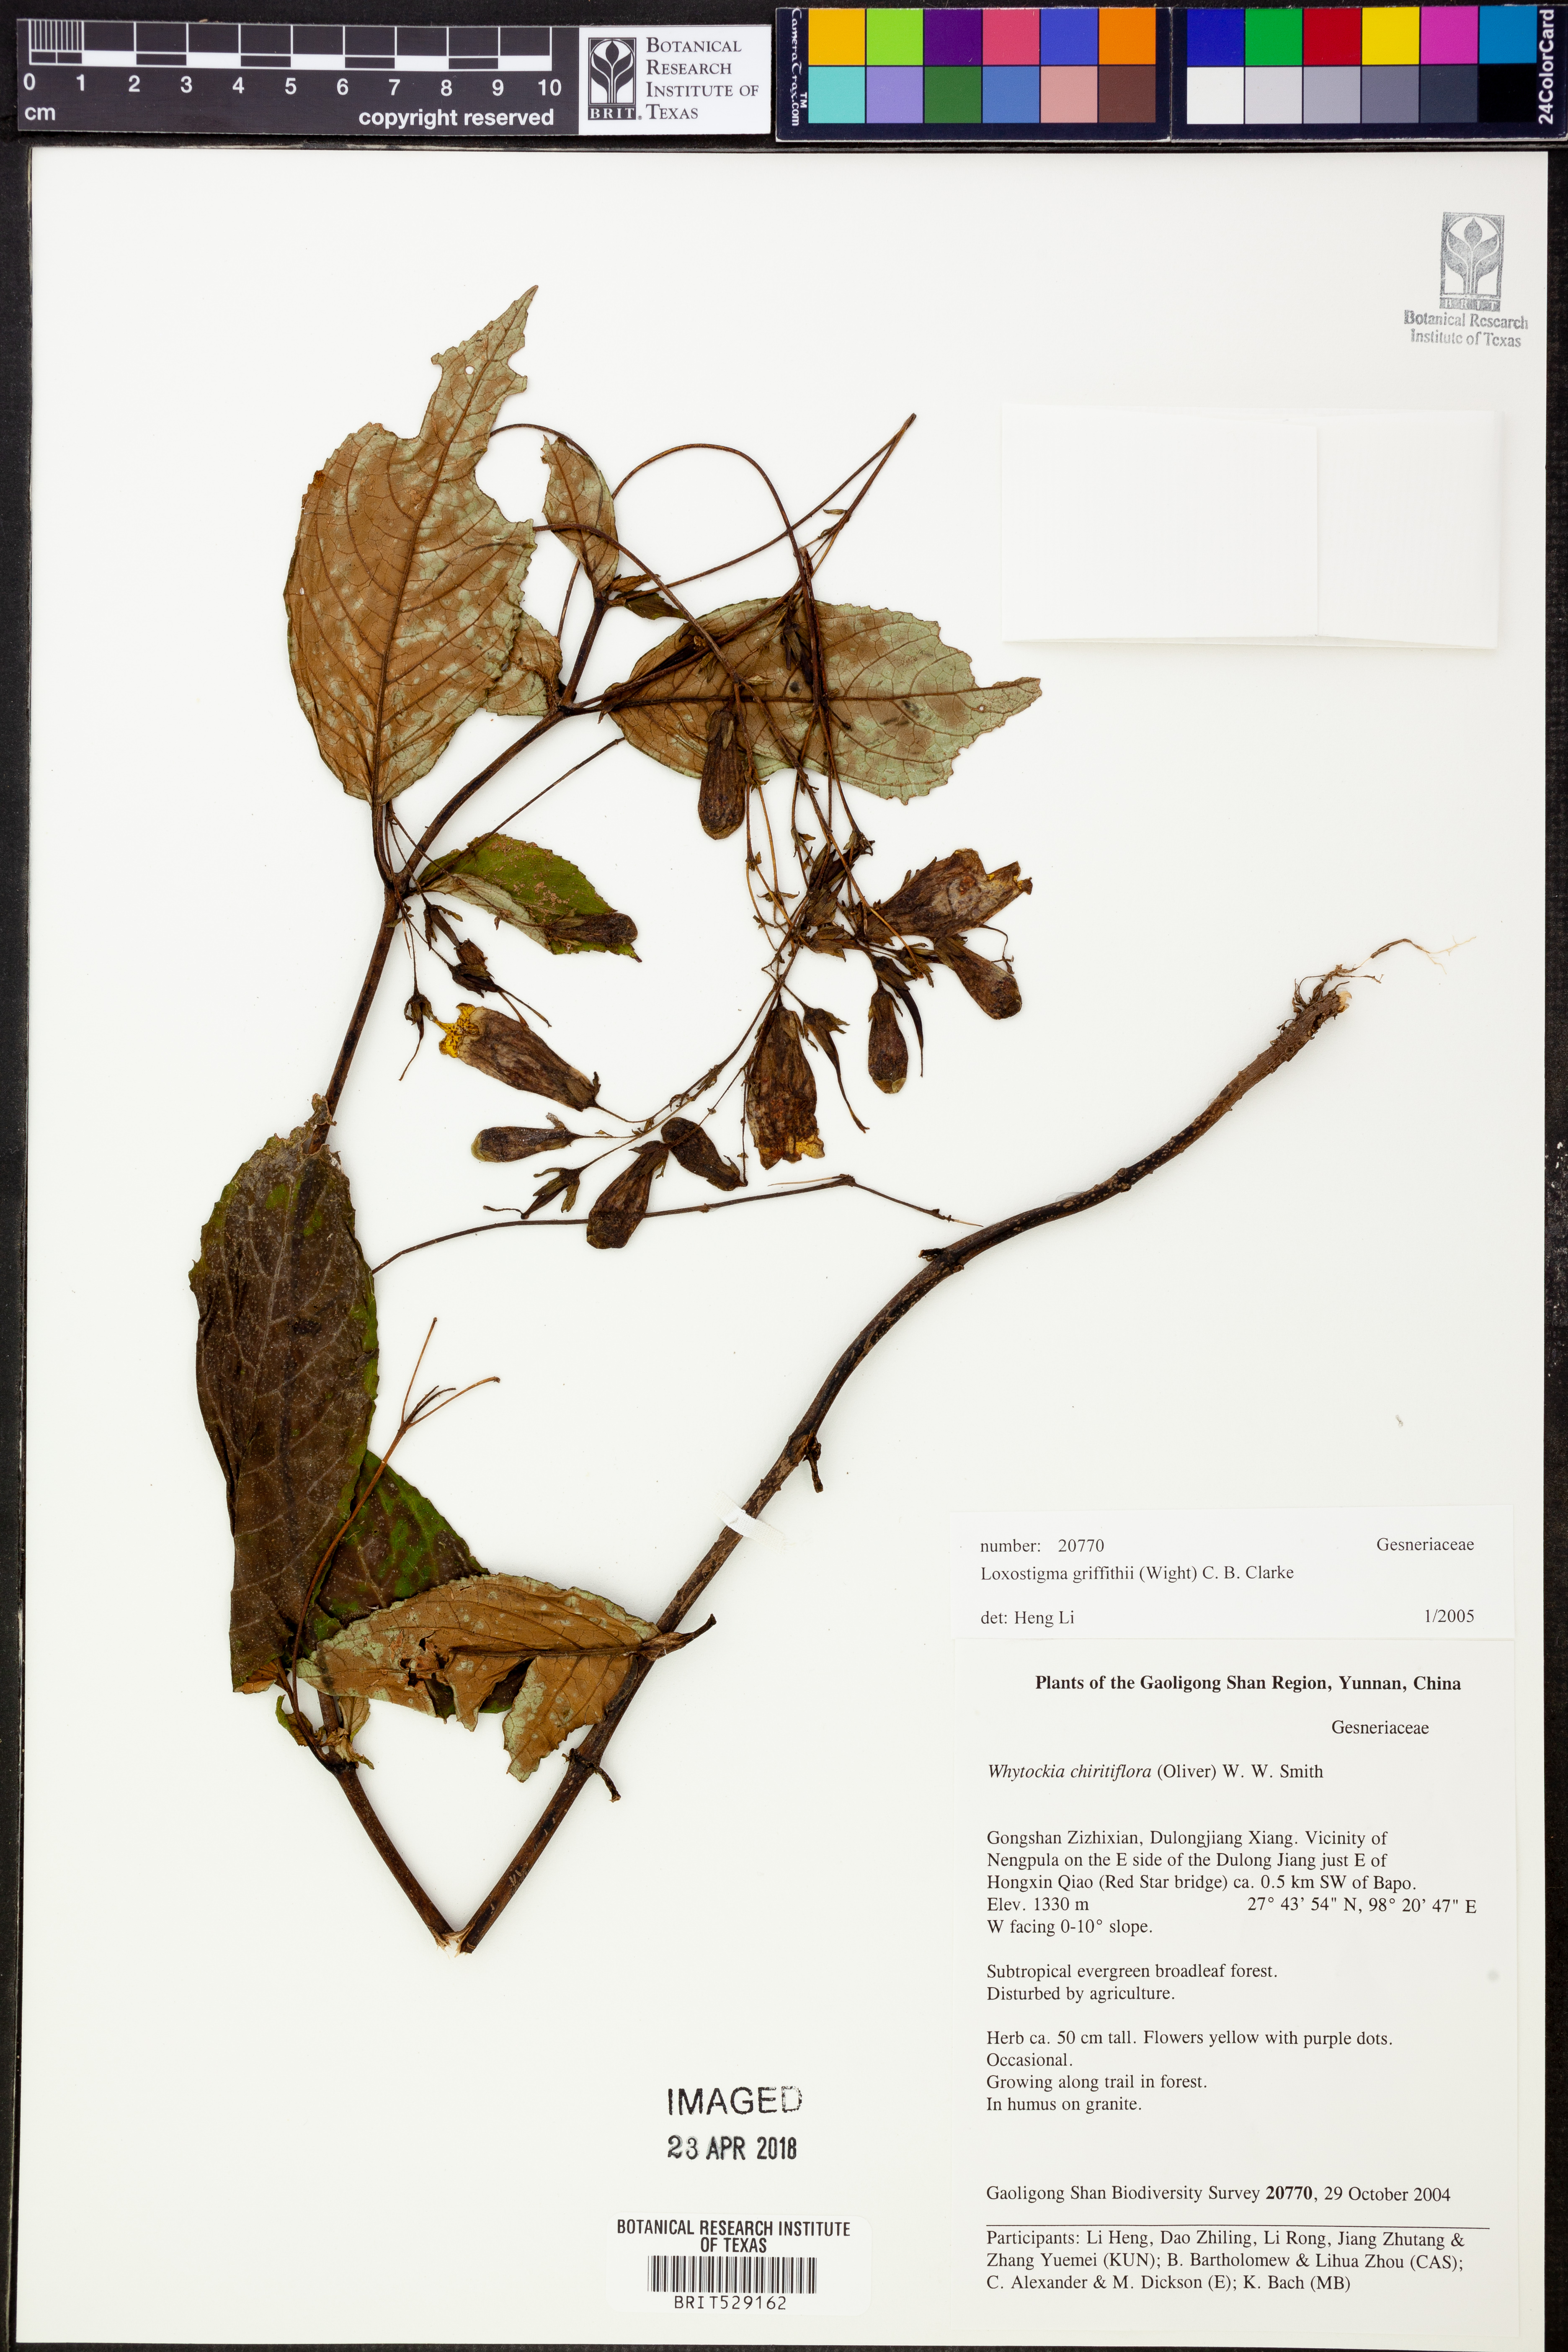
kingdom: Plantae
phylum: Tracheophyta
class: Magnoliopsida
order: Lamiales
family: Gesneriaceae
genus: Loxostigma
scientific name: Loxostigma griffithii
